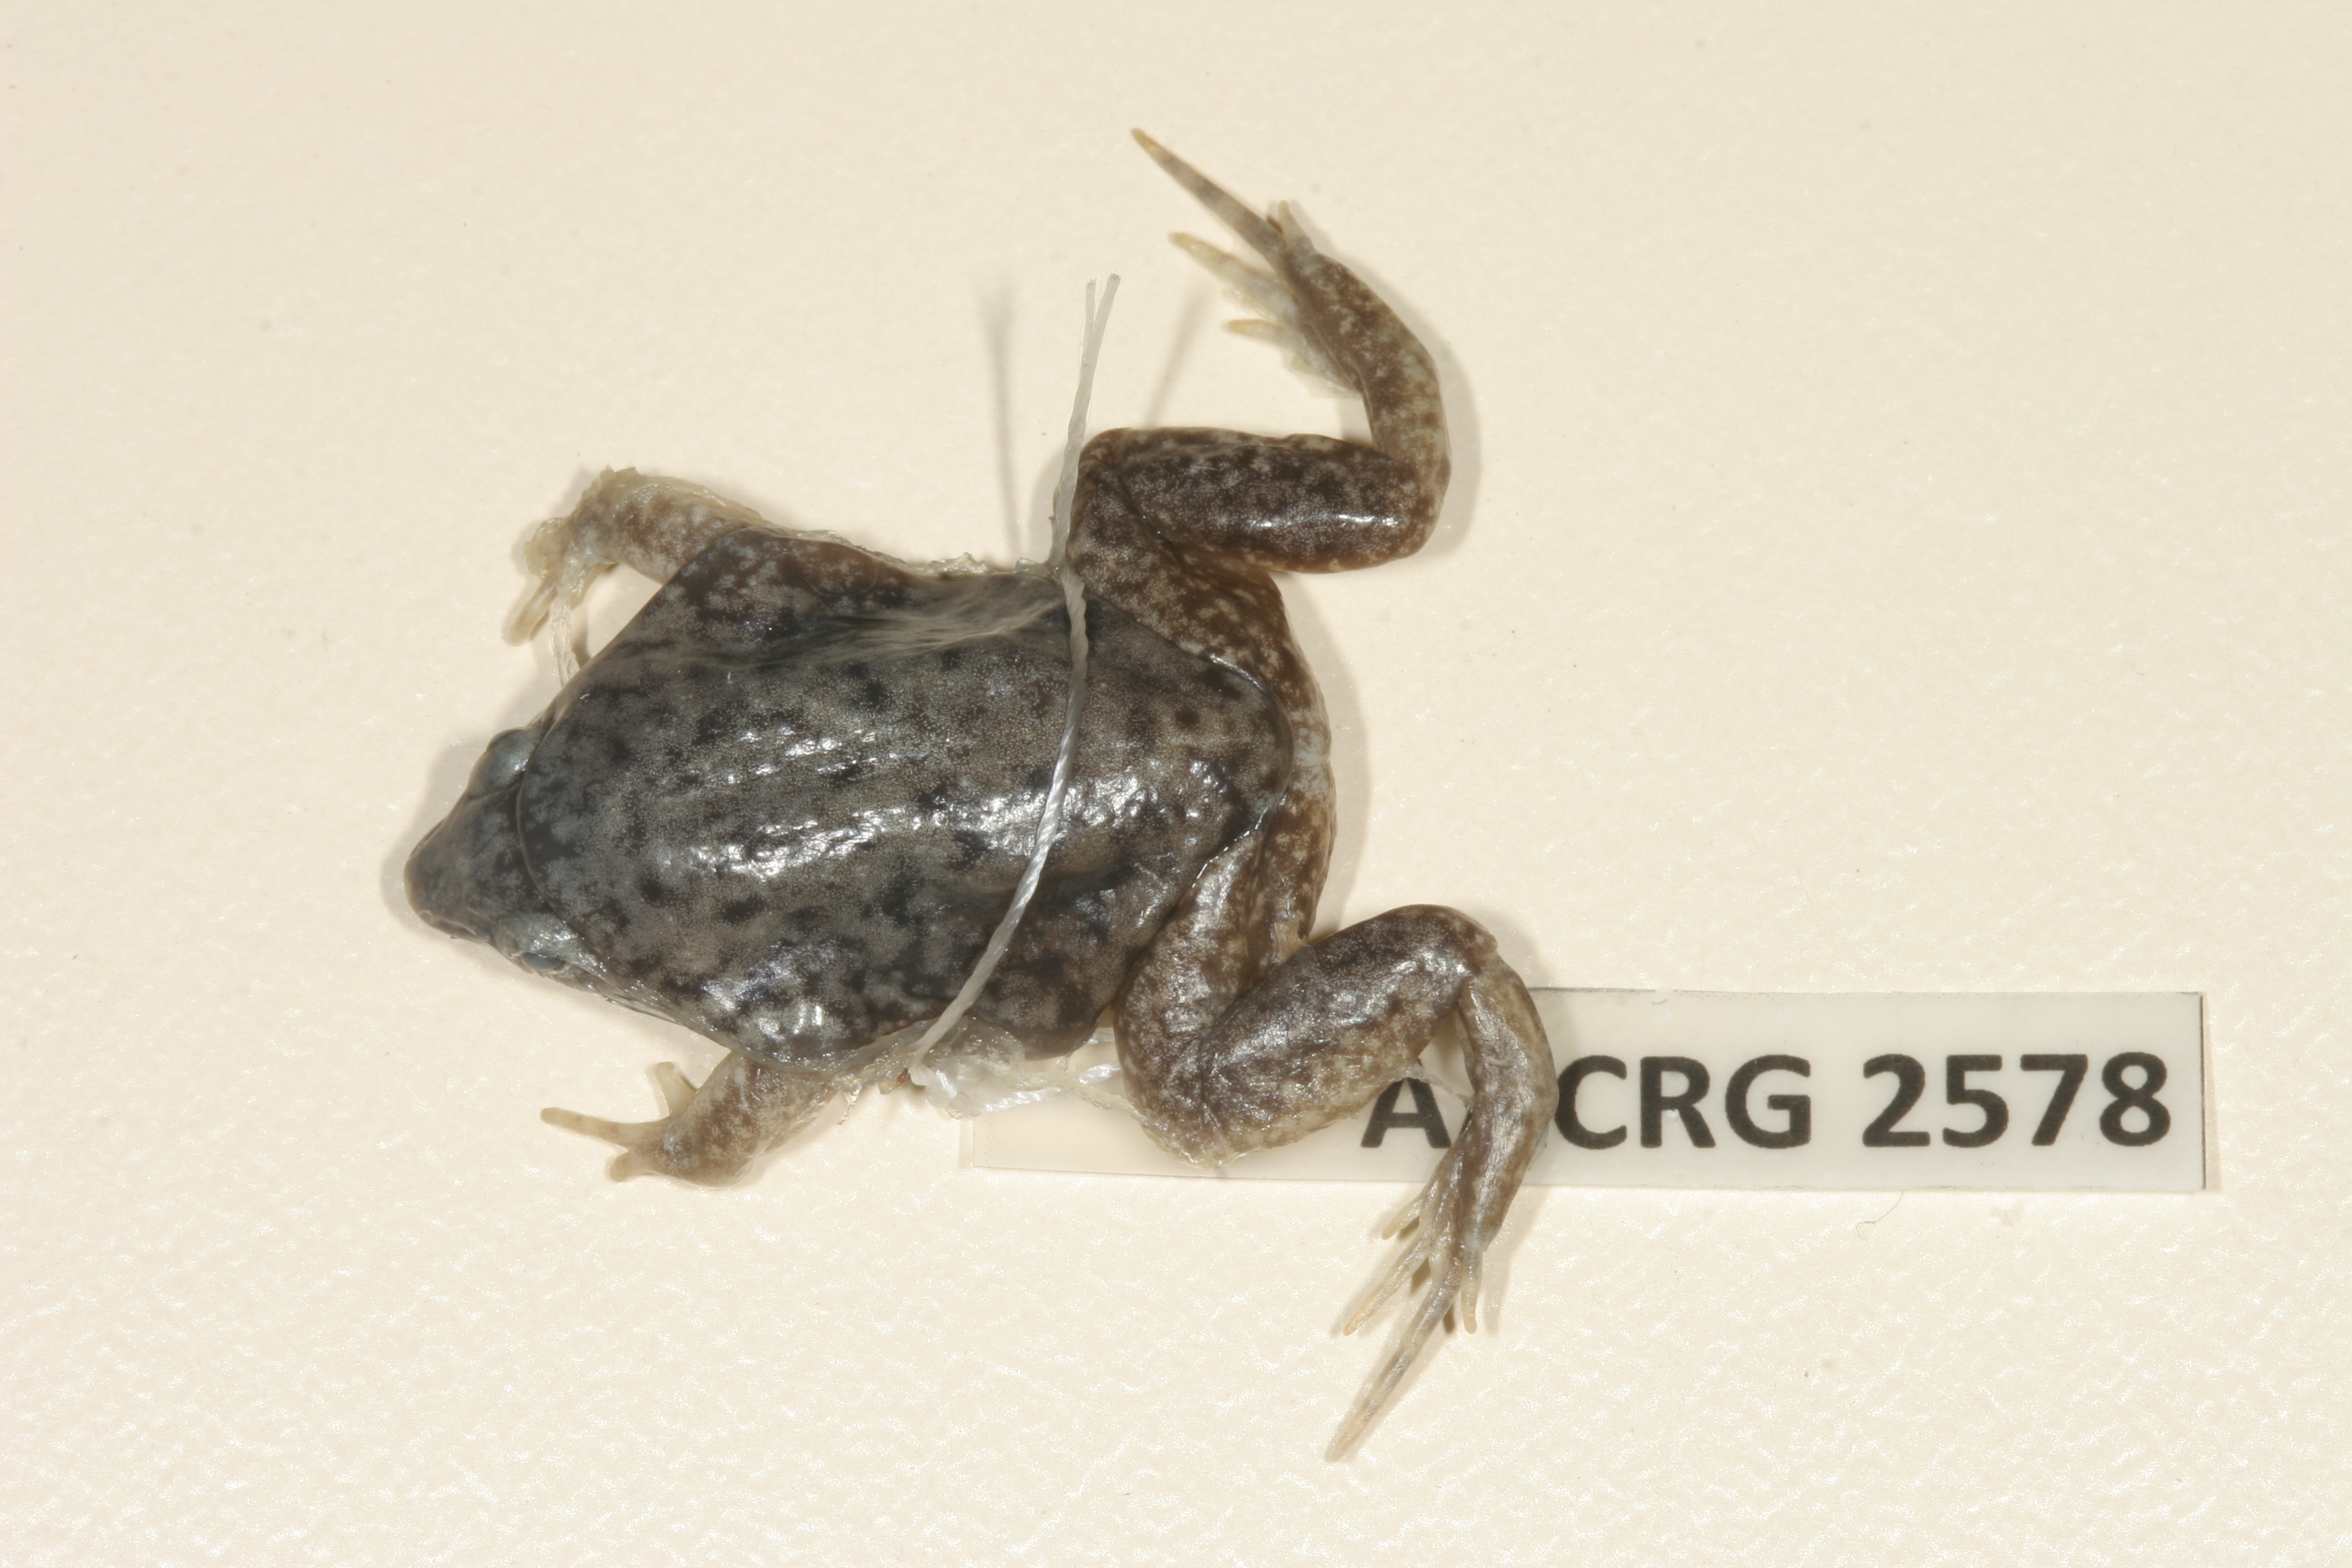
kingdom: Animalia
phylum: Chordata
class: Amphibia
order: Anura
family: Hemisotidae
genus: Hemisus
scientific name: Hemisus marmoratus
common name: Mottled shovel-nosed frog
